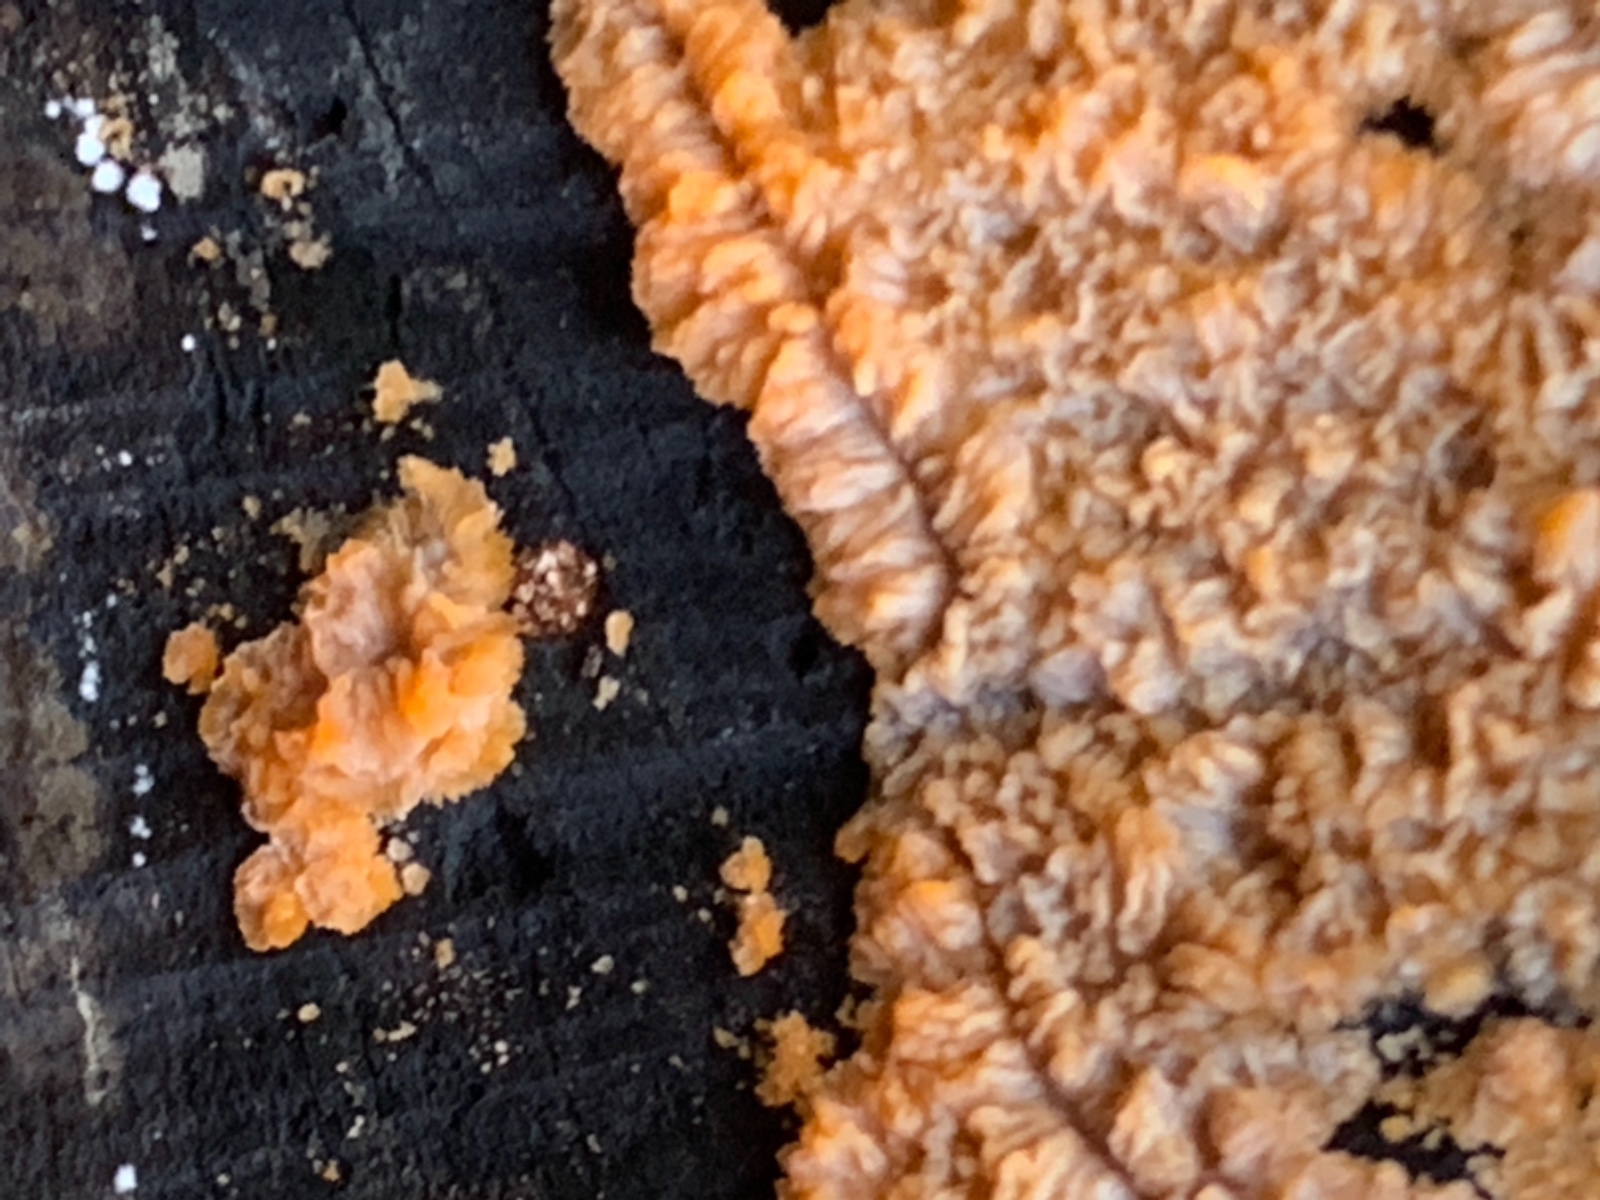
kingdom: Fungi
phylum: Basidiomycota
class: Agaricomycetes
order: Polyporales
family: Meruliaceae
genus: Phlebia
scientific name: Phlebia radiata
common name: stråle-åresvamp
